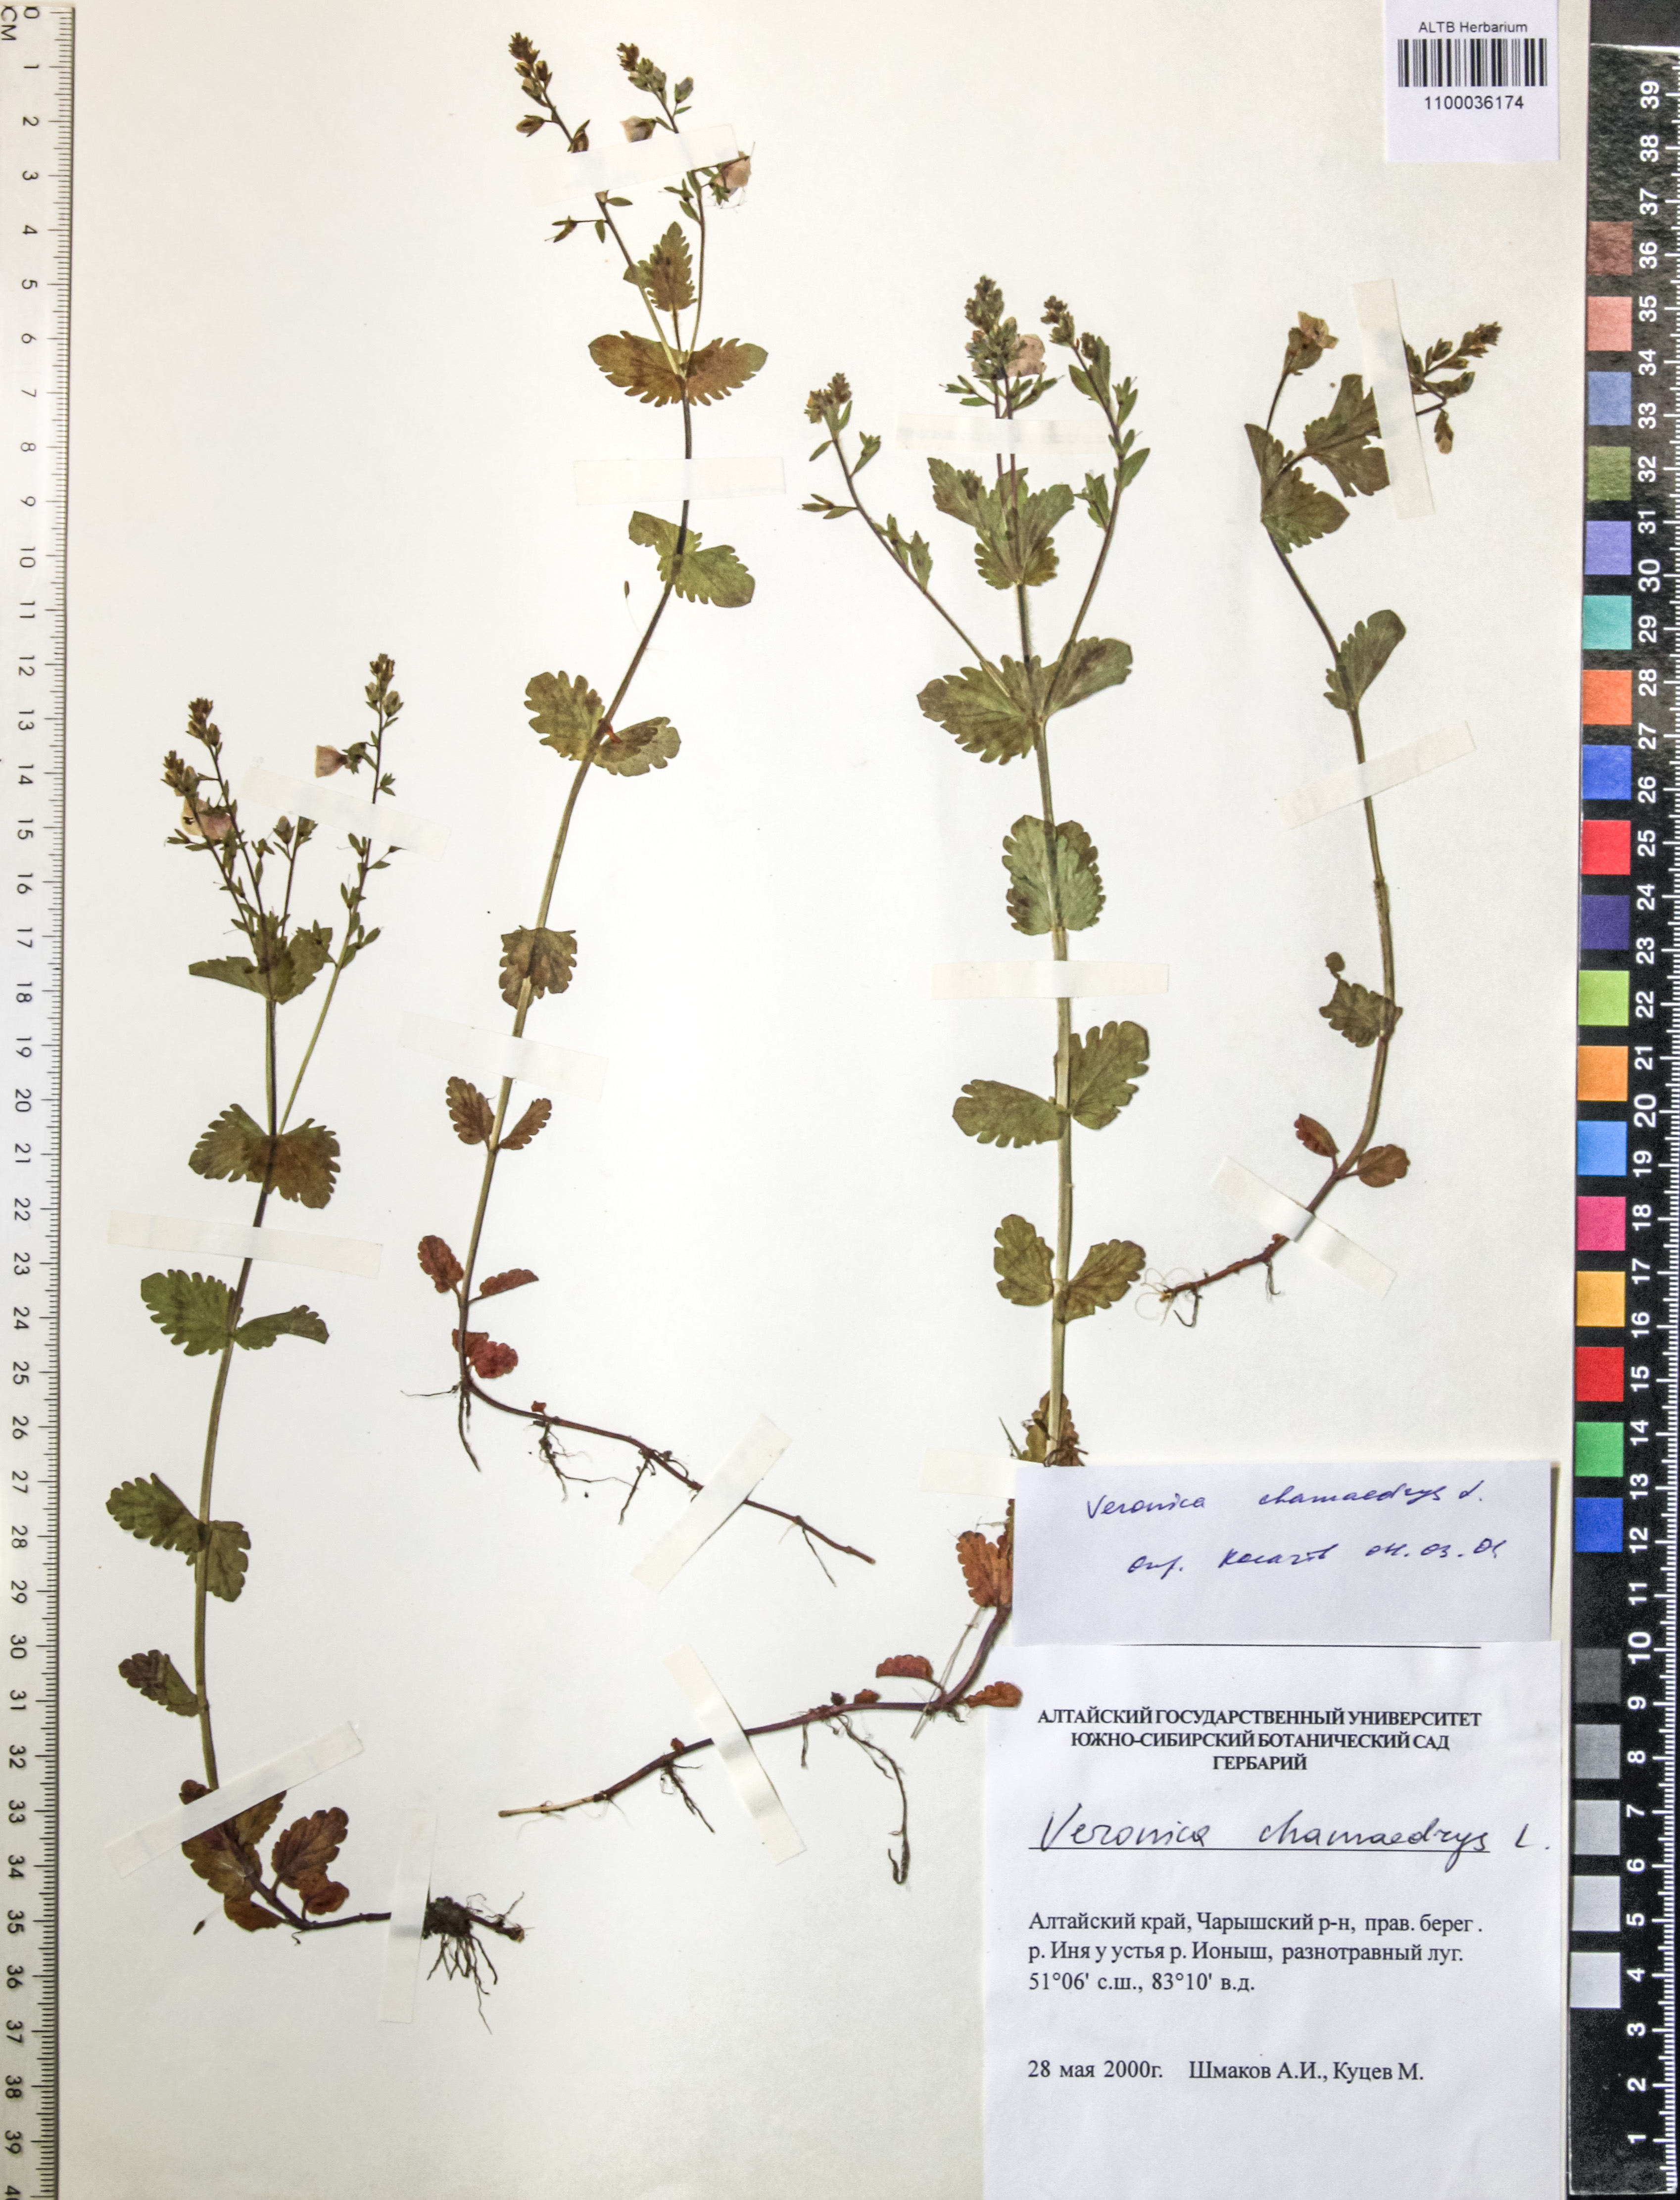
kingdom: Plantae
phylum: Tracheophyta
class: Magnoliopsida
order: Lamiales
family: Plantaginaceae
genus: Veronica
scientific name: Veronica chamaedrys
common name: Germander speedwell
